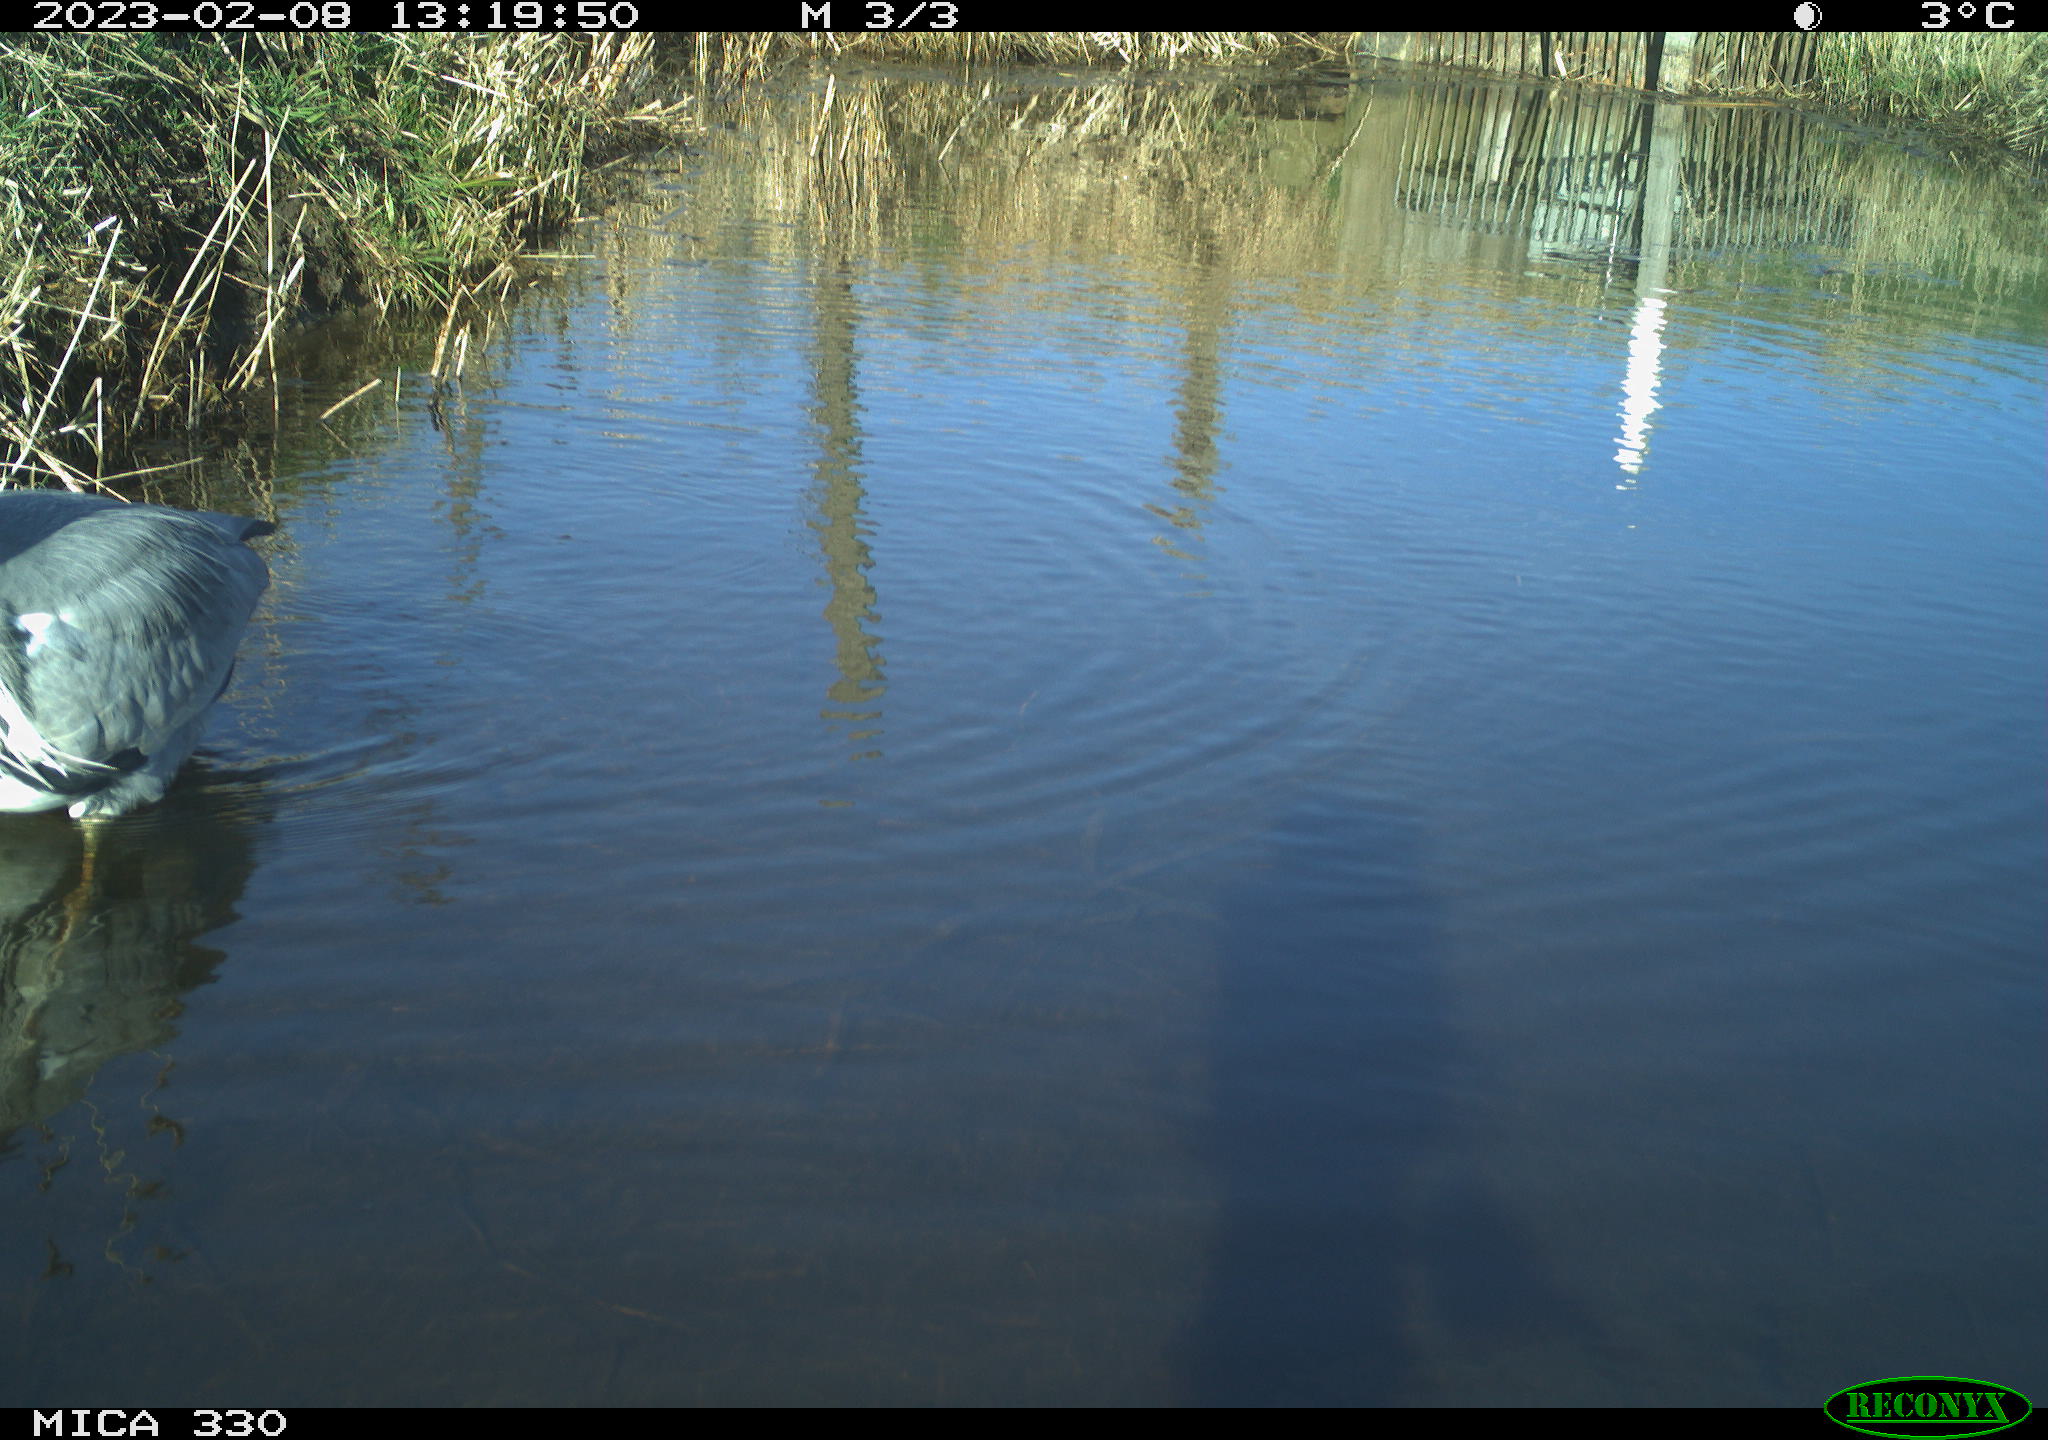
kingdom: Animalia
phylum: Chordata
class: Aves
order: Pelecaniformes
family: Ardeidae
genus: Ardea
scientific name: Ardea cinerea
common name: Grey heron
